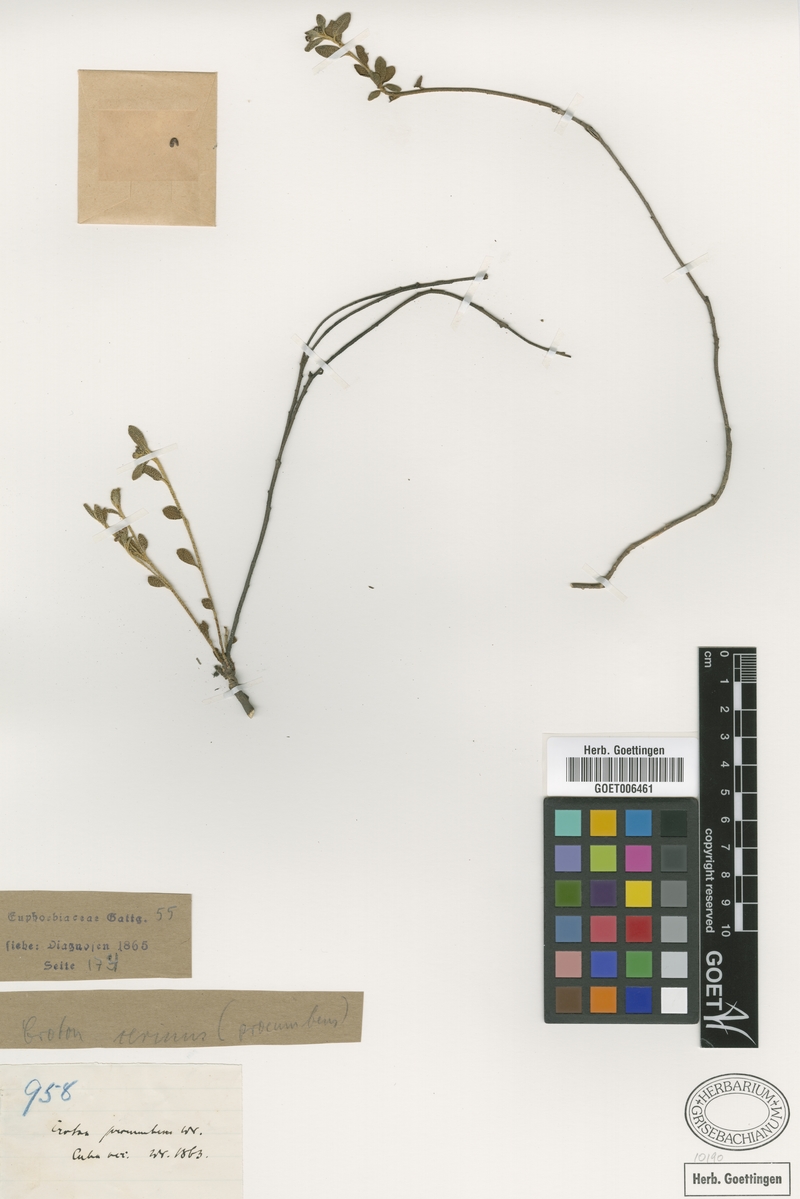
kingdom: Plantae
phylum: Tracheophyta
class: Magnoliopsida
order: Malpighiales
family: Euphorbiaceae
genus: Croton
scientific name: Croton cerinus
